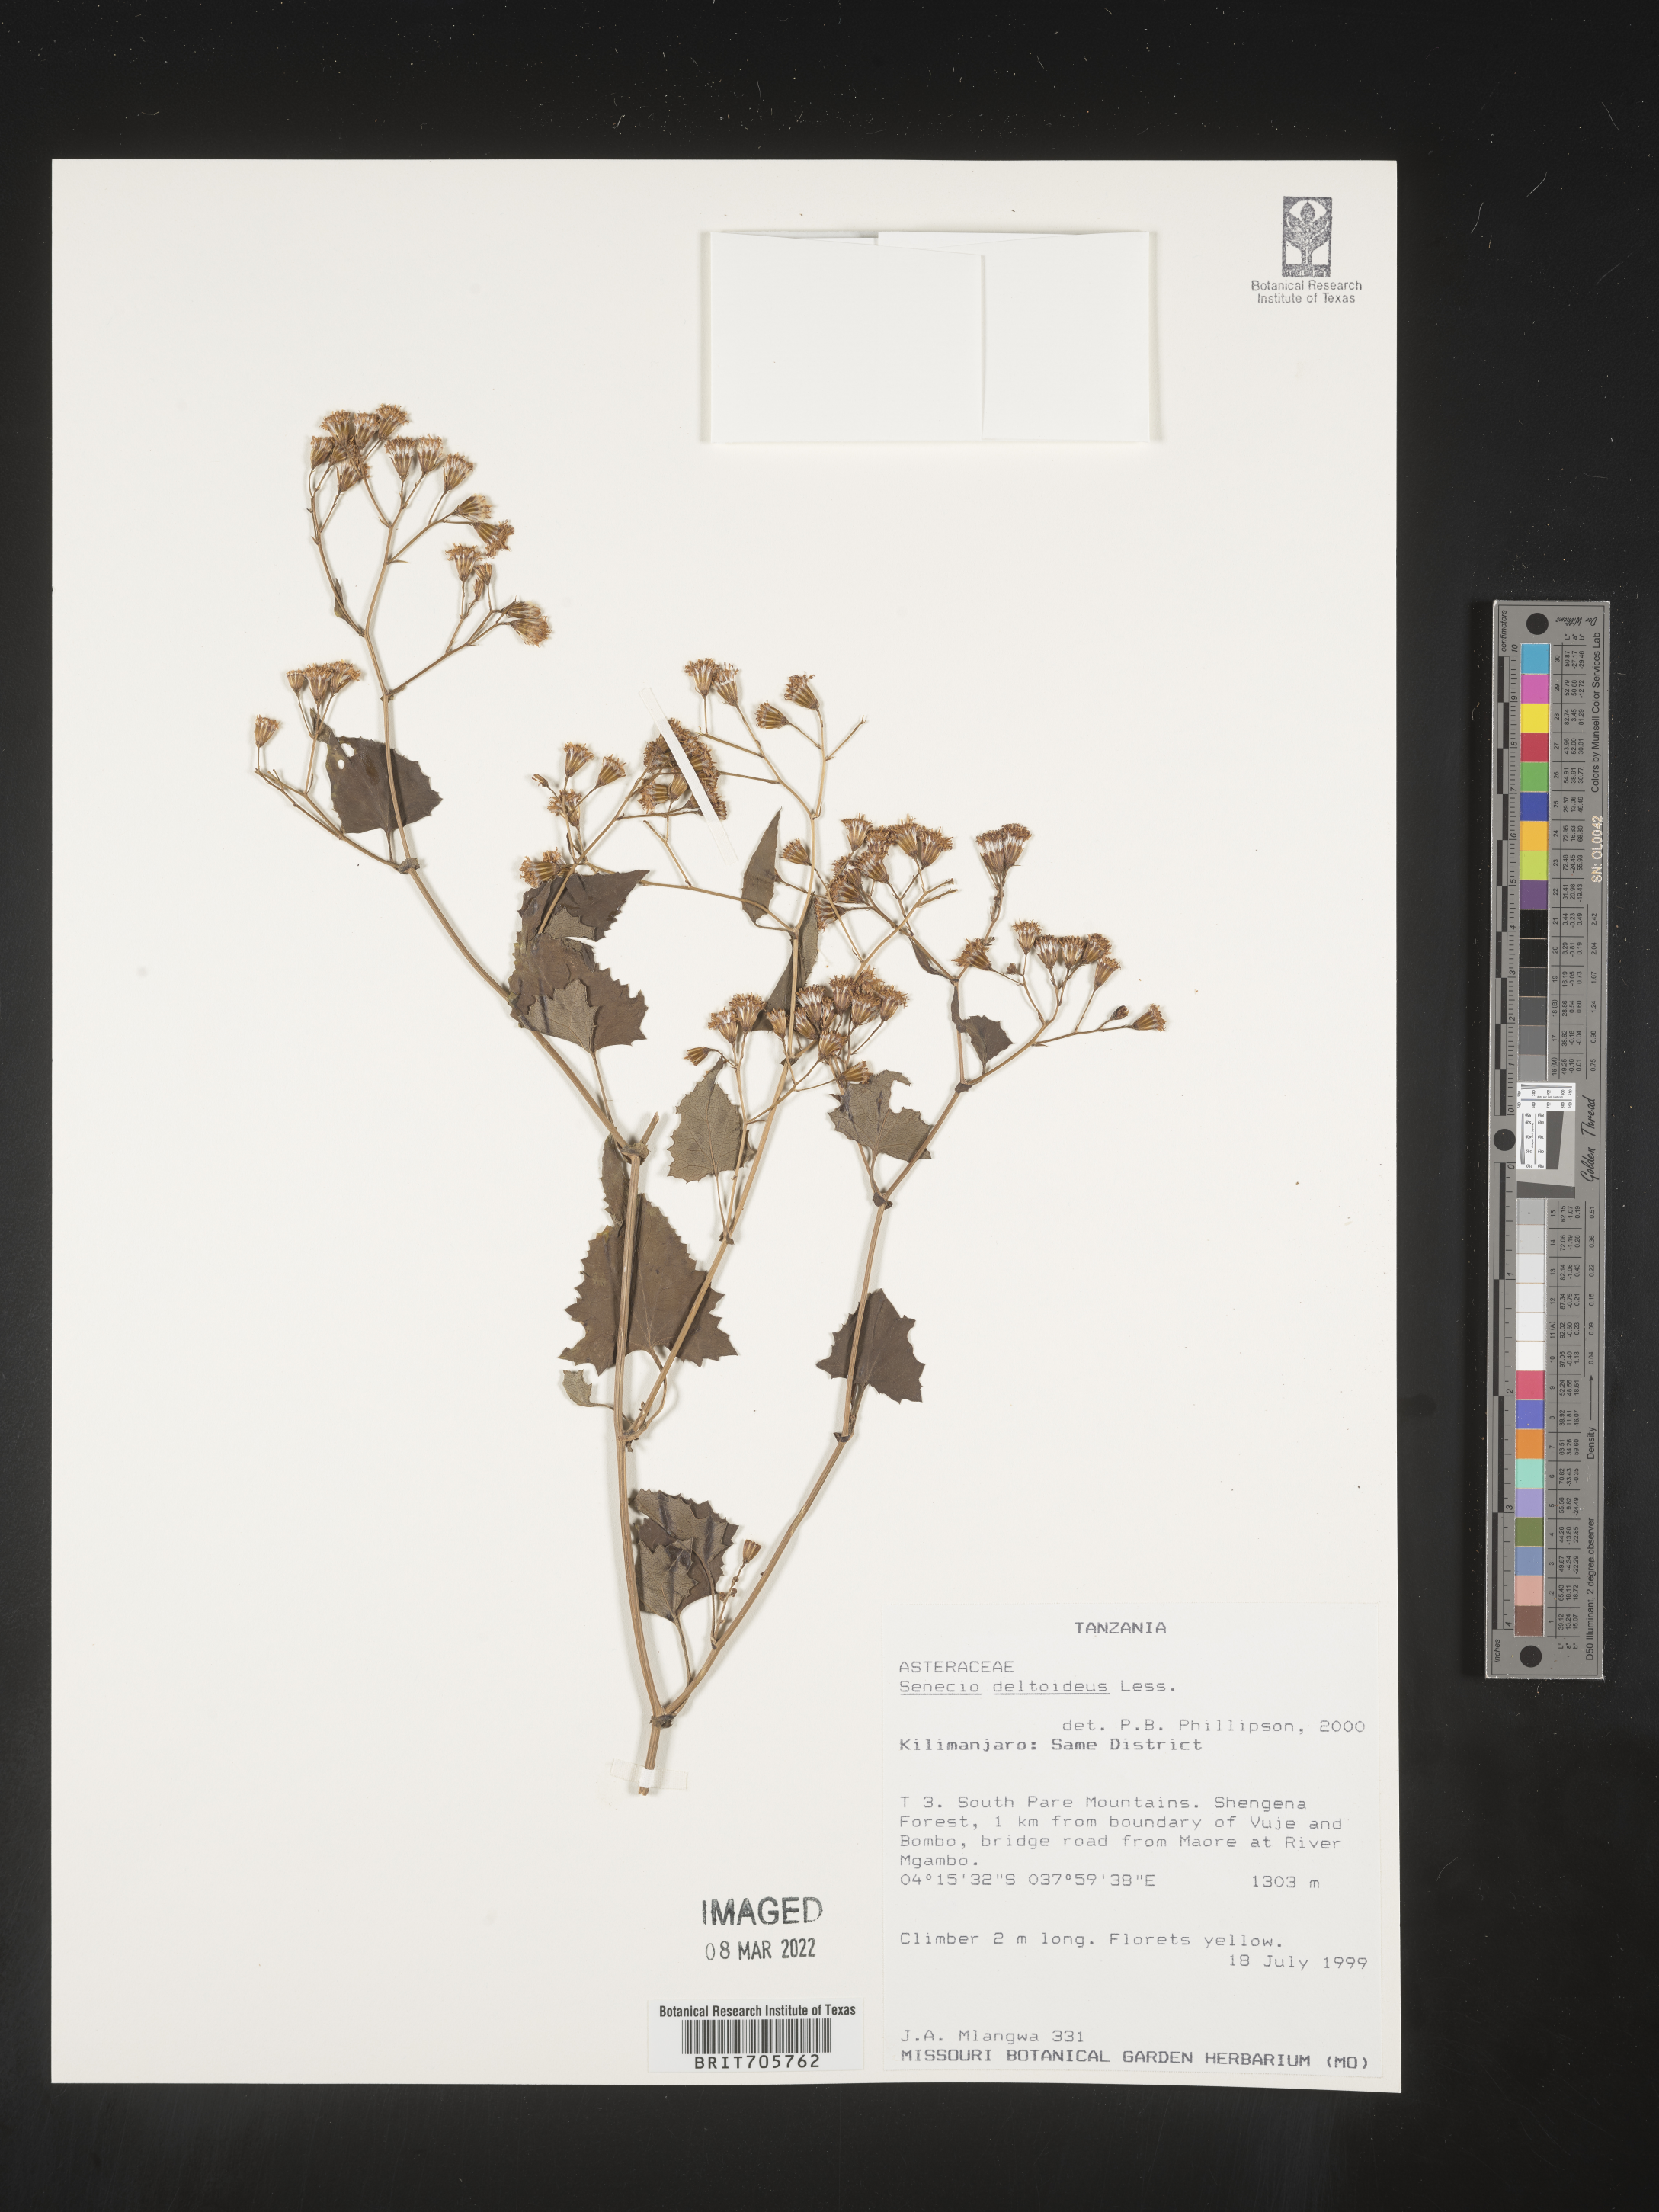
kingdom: Plantae
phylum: Tracheophyta
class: Magnoliopsida
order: Asterales
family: Asteraceae
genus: Senecio
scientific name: Senecio
